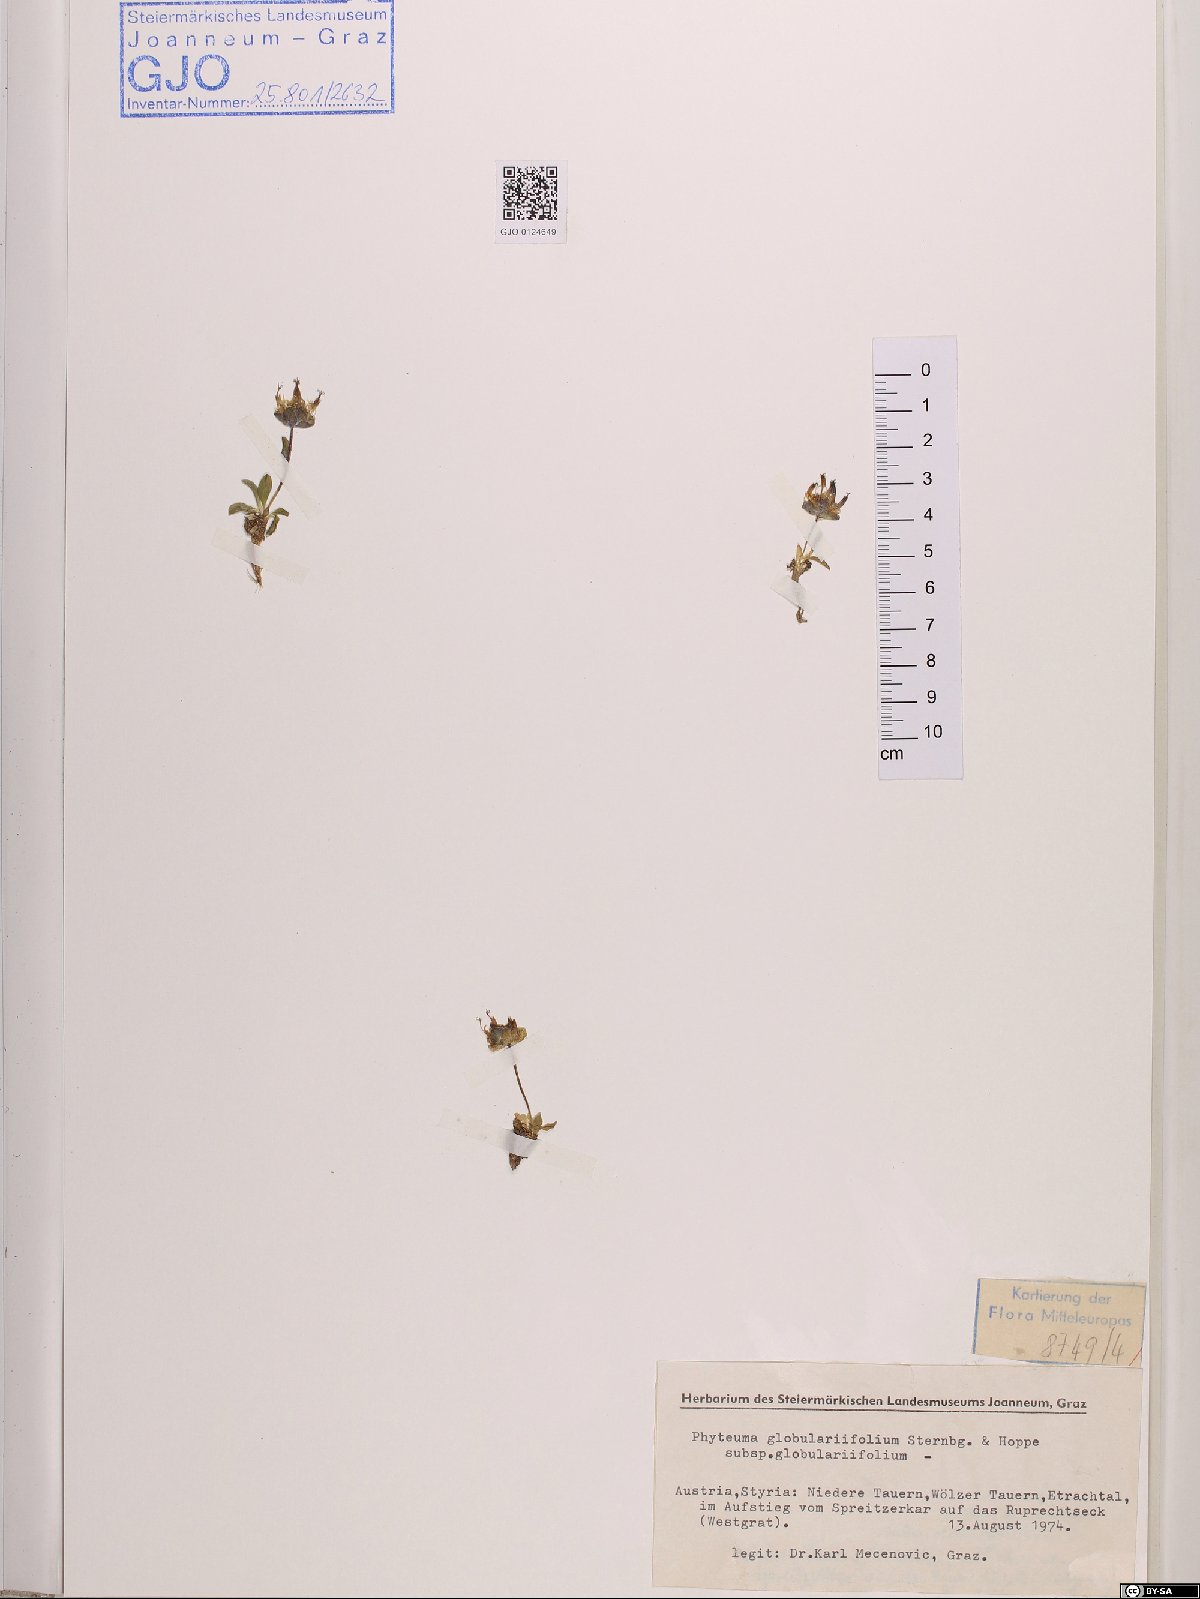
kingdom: Plantae
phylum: Tracheophyta
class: Magnoliopsida
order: Asterales
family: Campanulaceae
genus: Phyteuma
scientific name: Phyteuma globulariifolium
